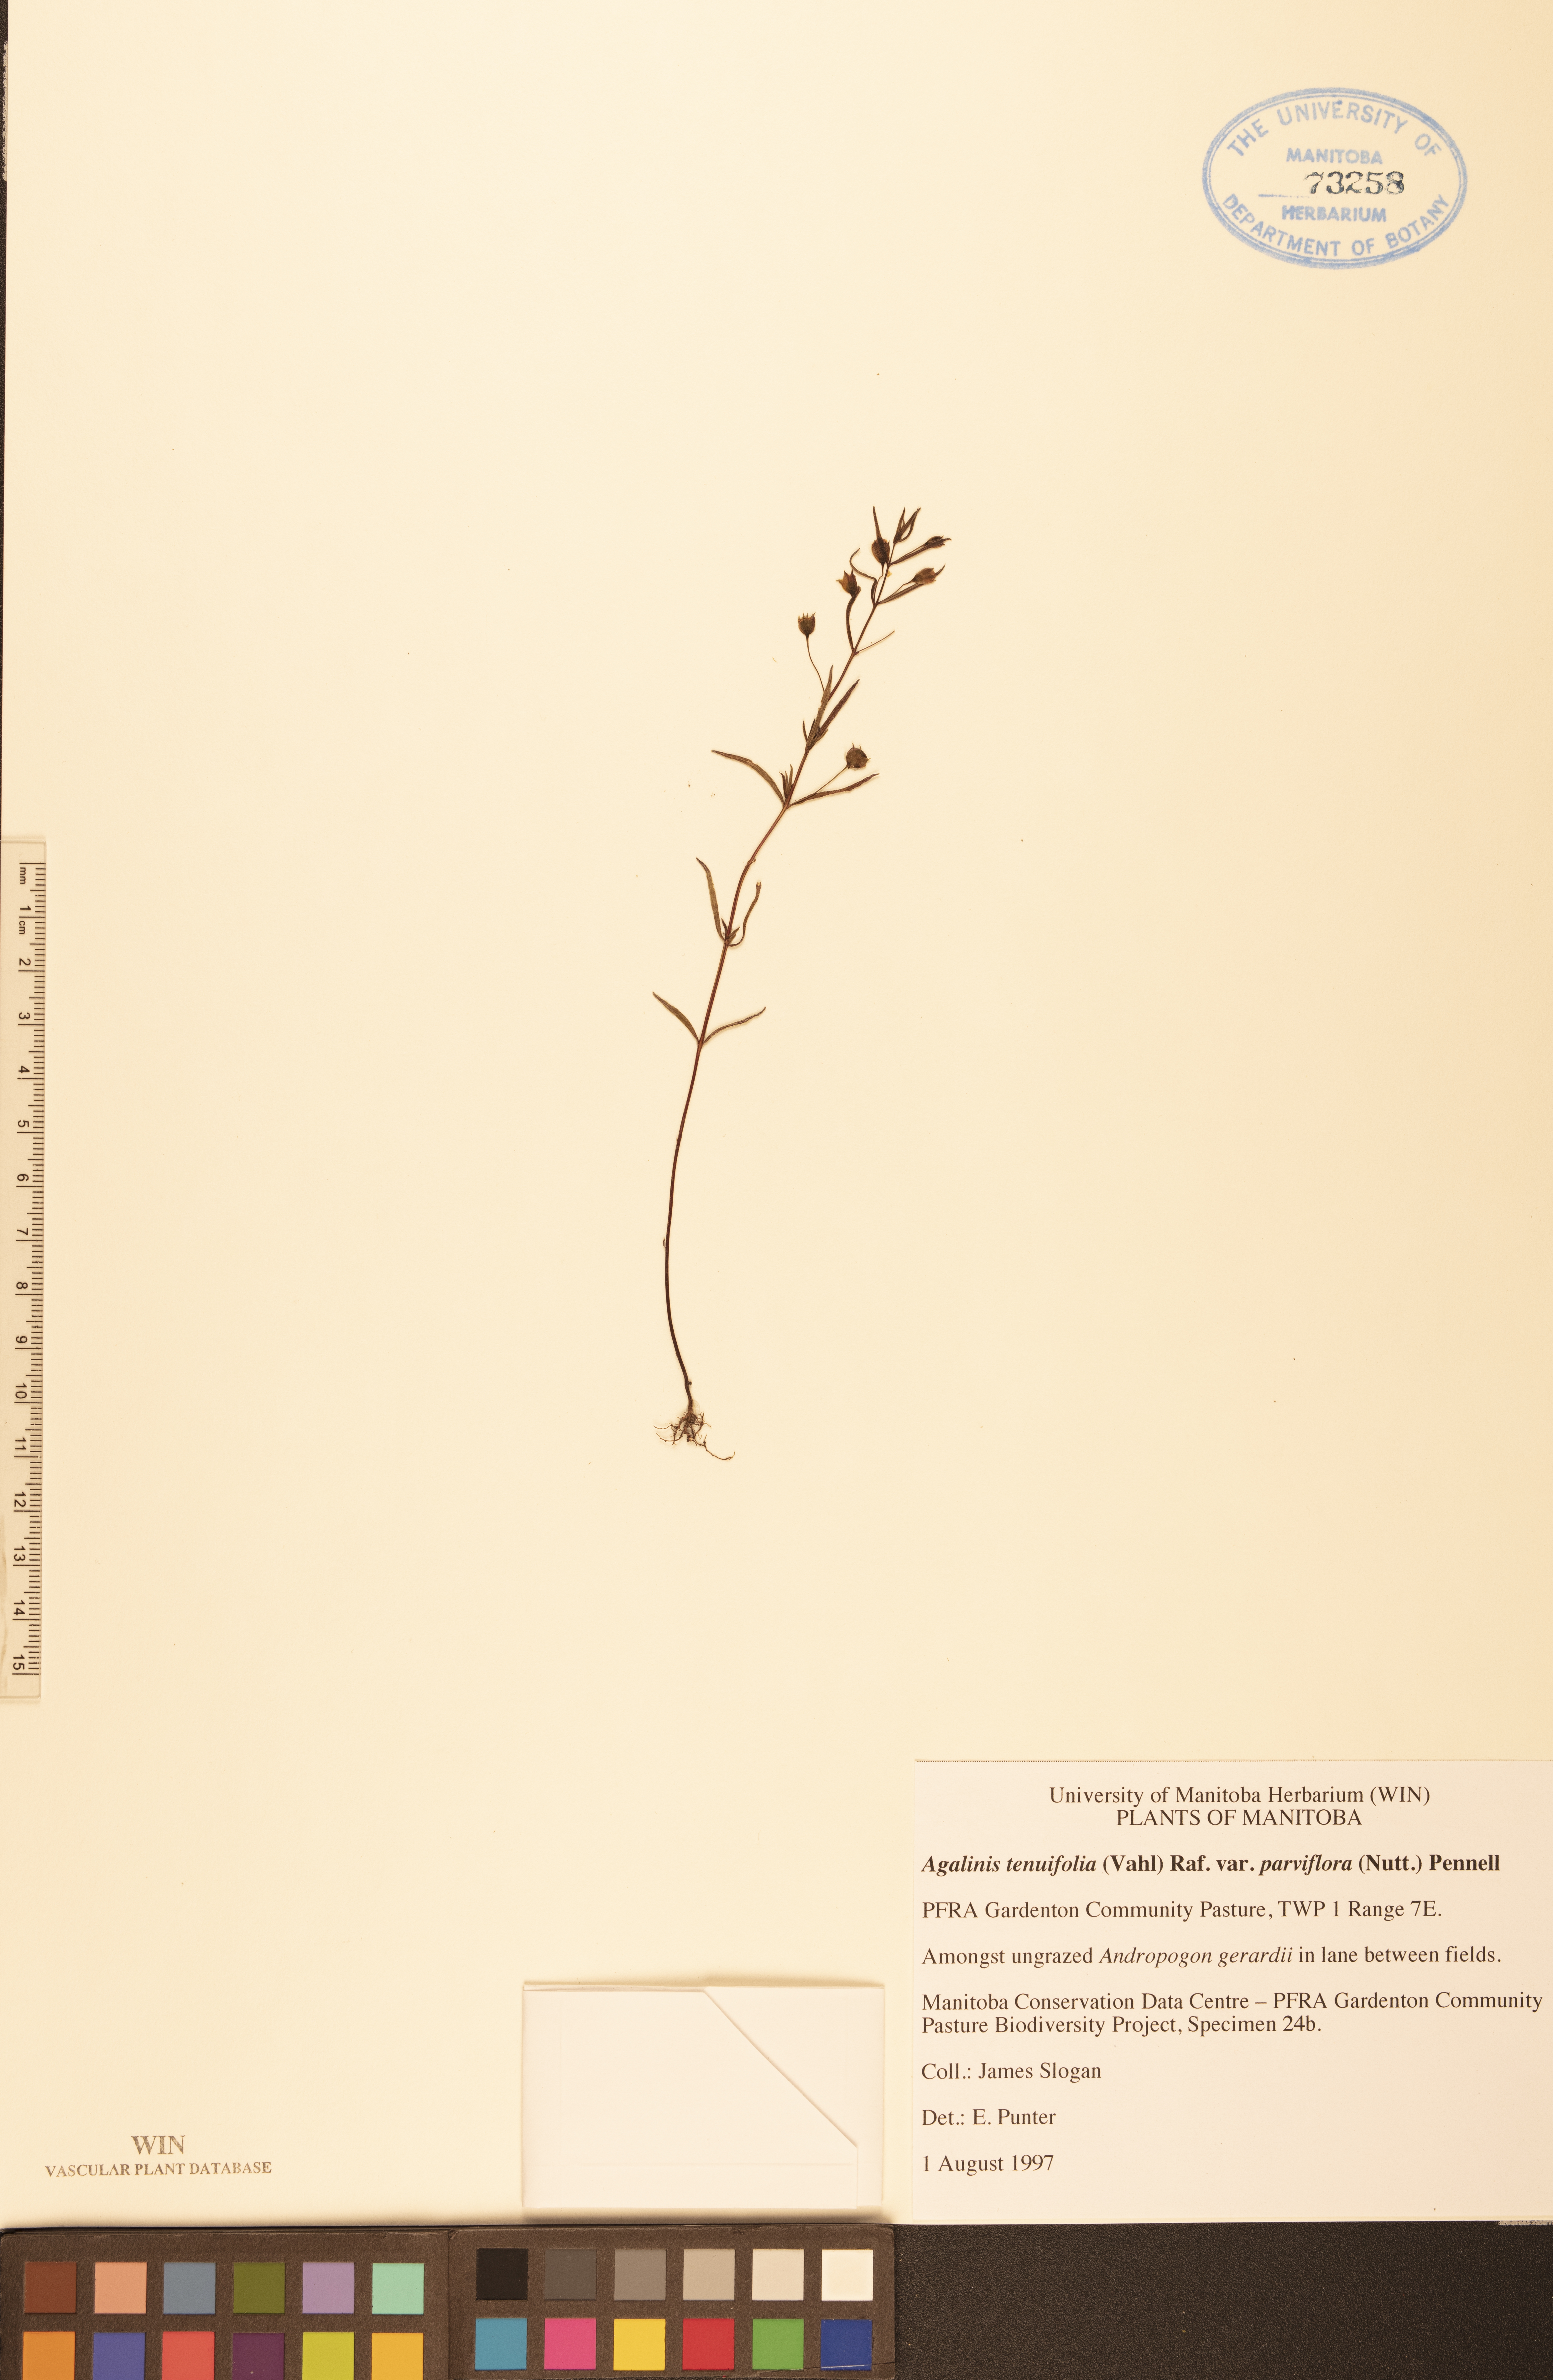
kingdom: Plantae
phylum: Tracheophyta
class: Magnoliopsida
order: Lamiales
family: Orobanchaceae
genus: Agalinis
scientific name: Agalinis tenuifolia
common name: Slender agalinis
